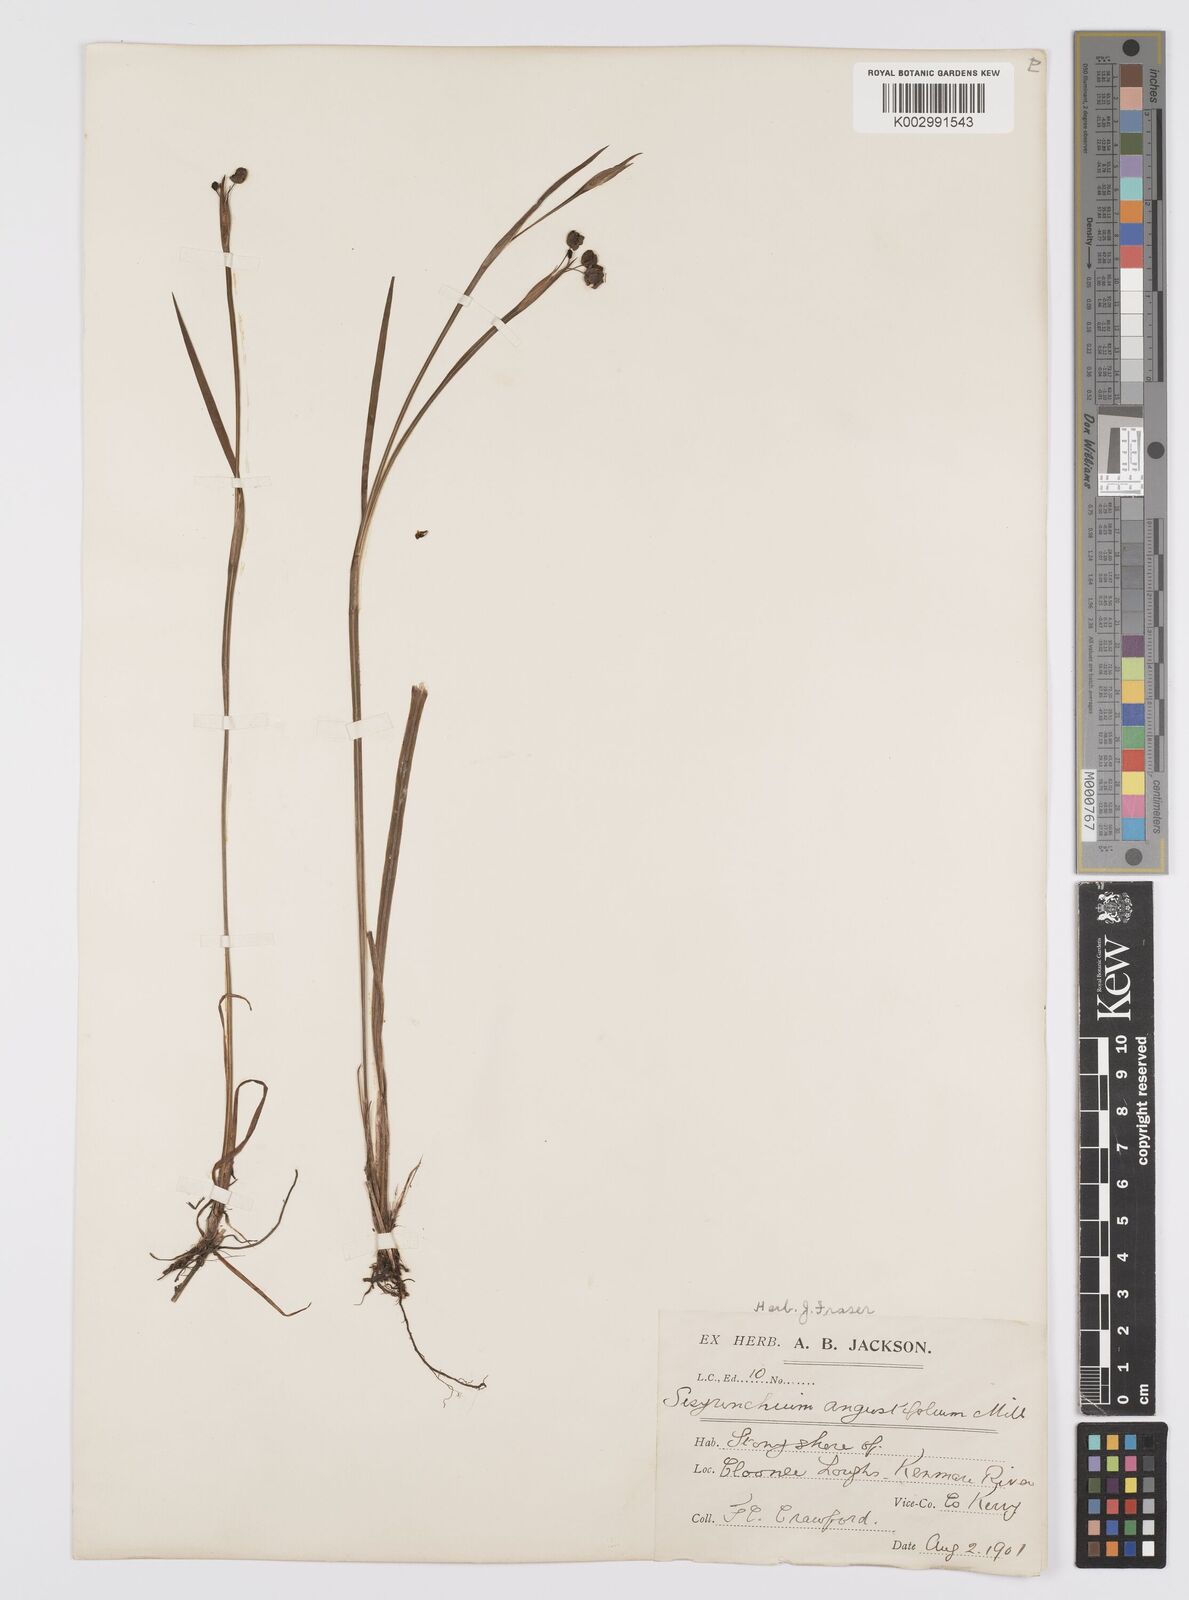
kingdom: Plantae
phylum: Tracheophyta
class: Liliopsida
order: Asparagales
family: Iridaceae
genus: Sisyrinchium
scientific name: Sisyrinchium angustifolium
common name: Narrow-leaf blue-eyed-grass
